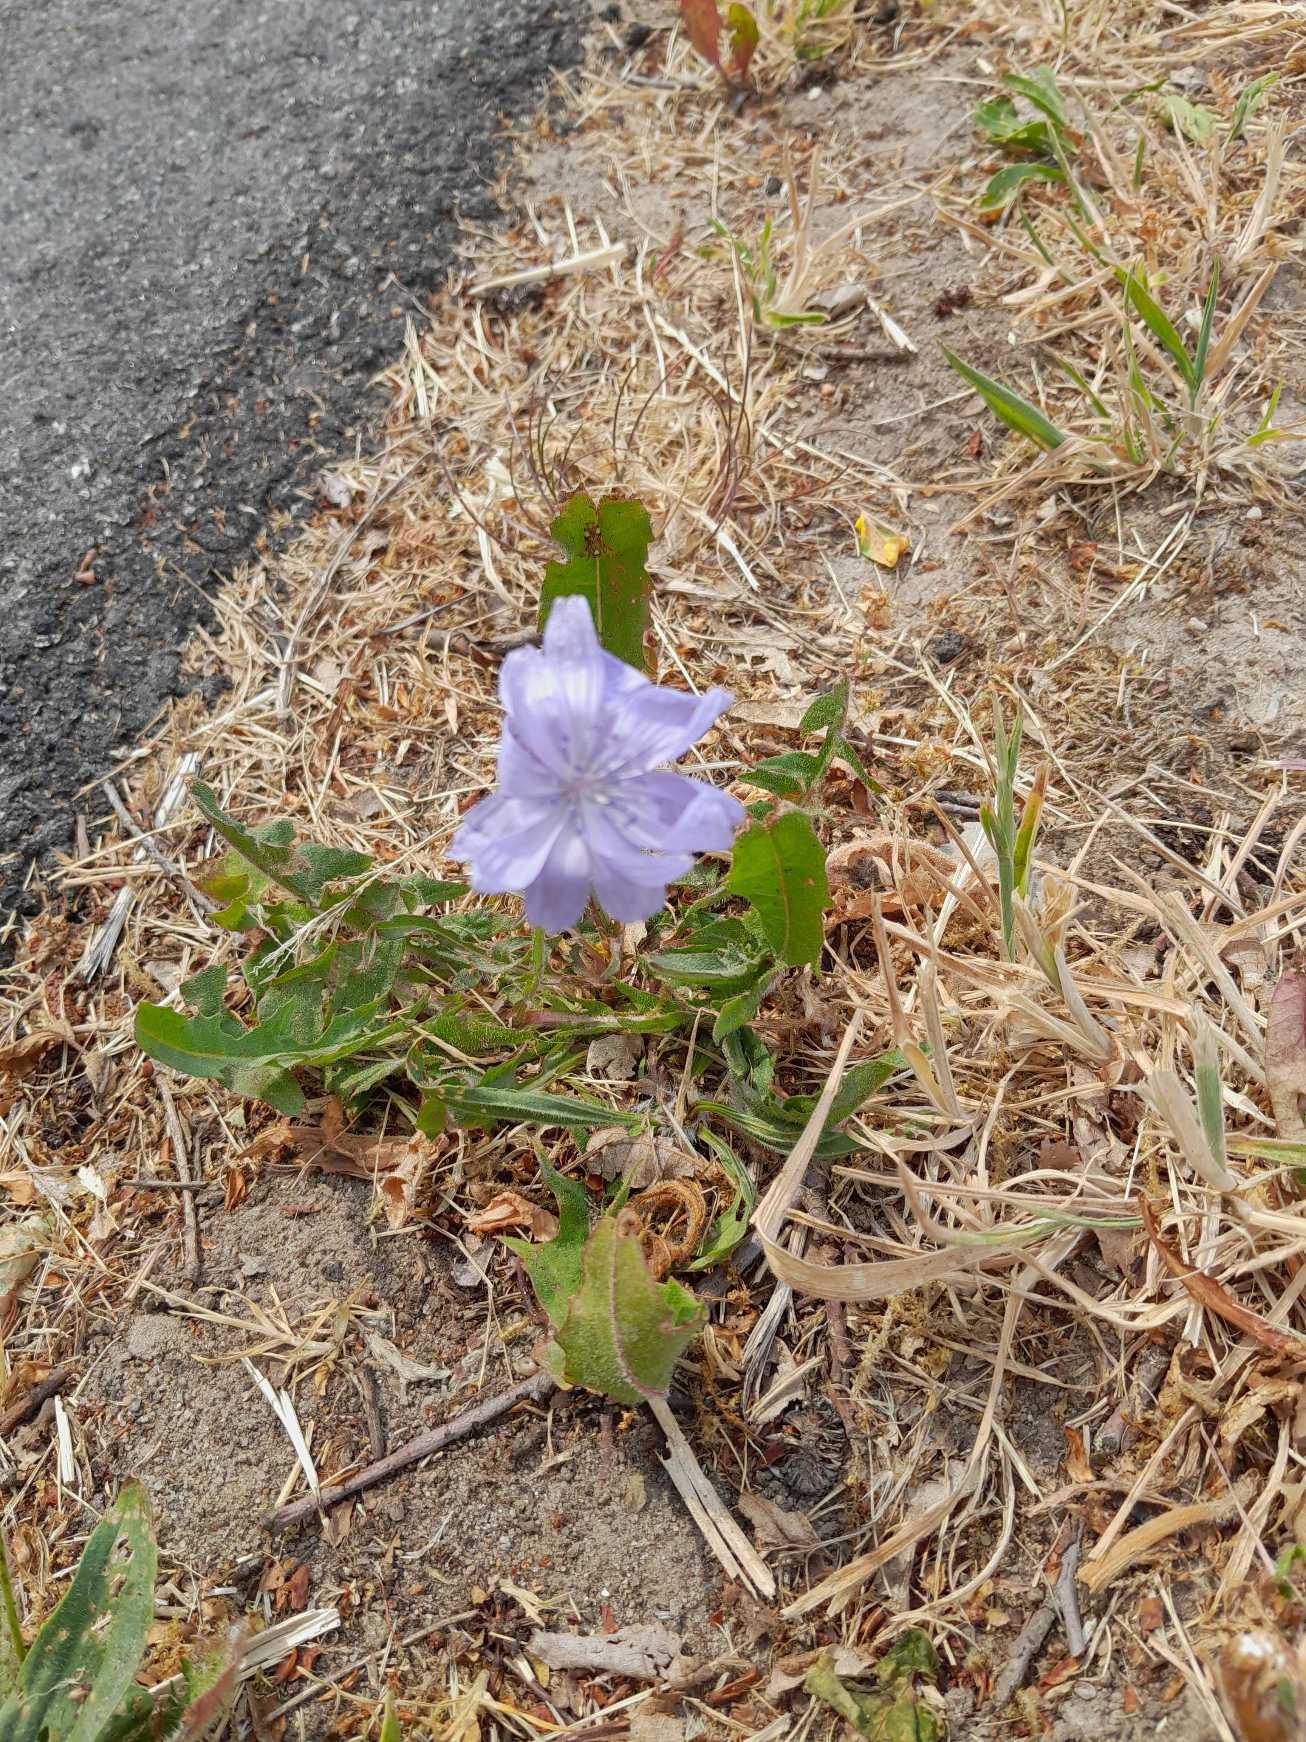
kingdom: Plantae
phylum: Tracheophyta
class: Magnoliopsida
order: Asterales
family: Asteraceae
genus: Cichorium
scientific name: Cichorium intybus
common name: Cikorie
